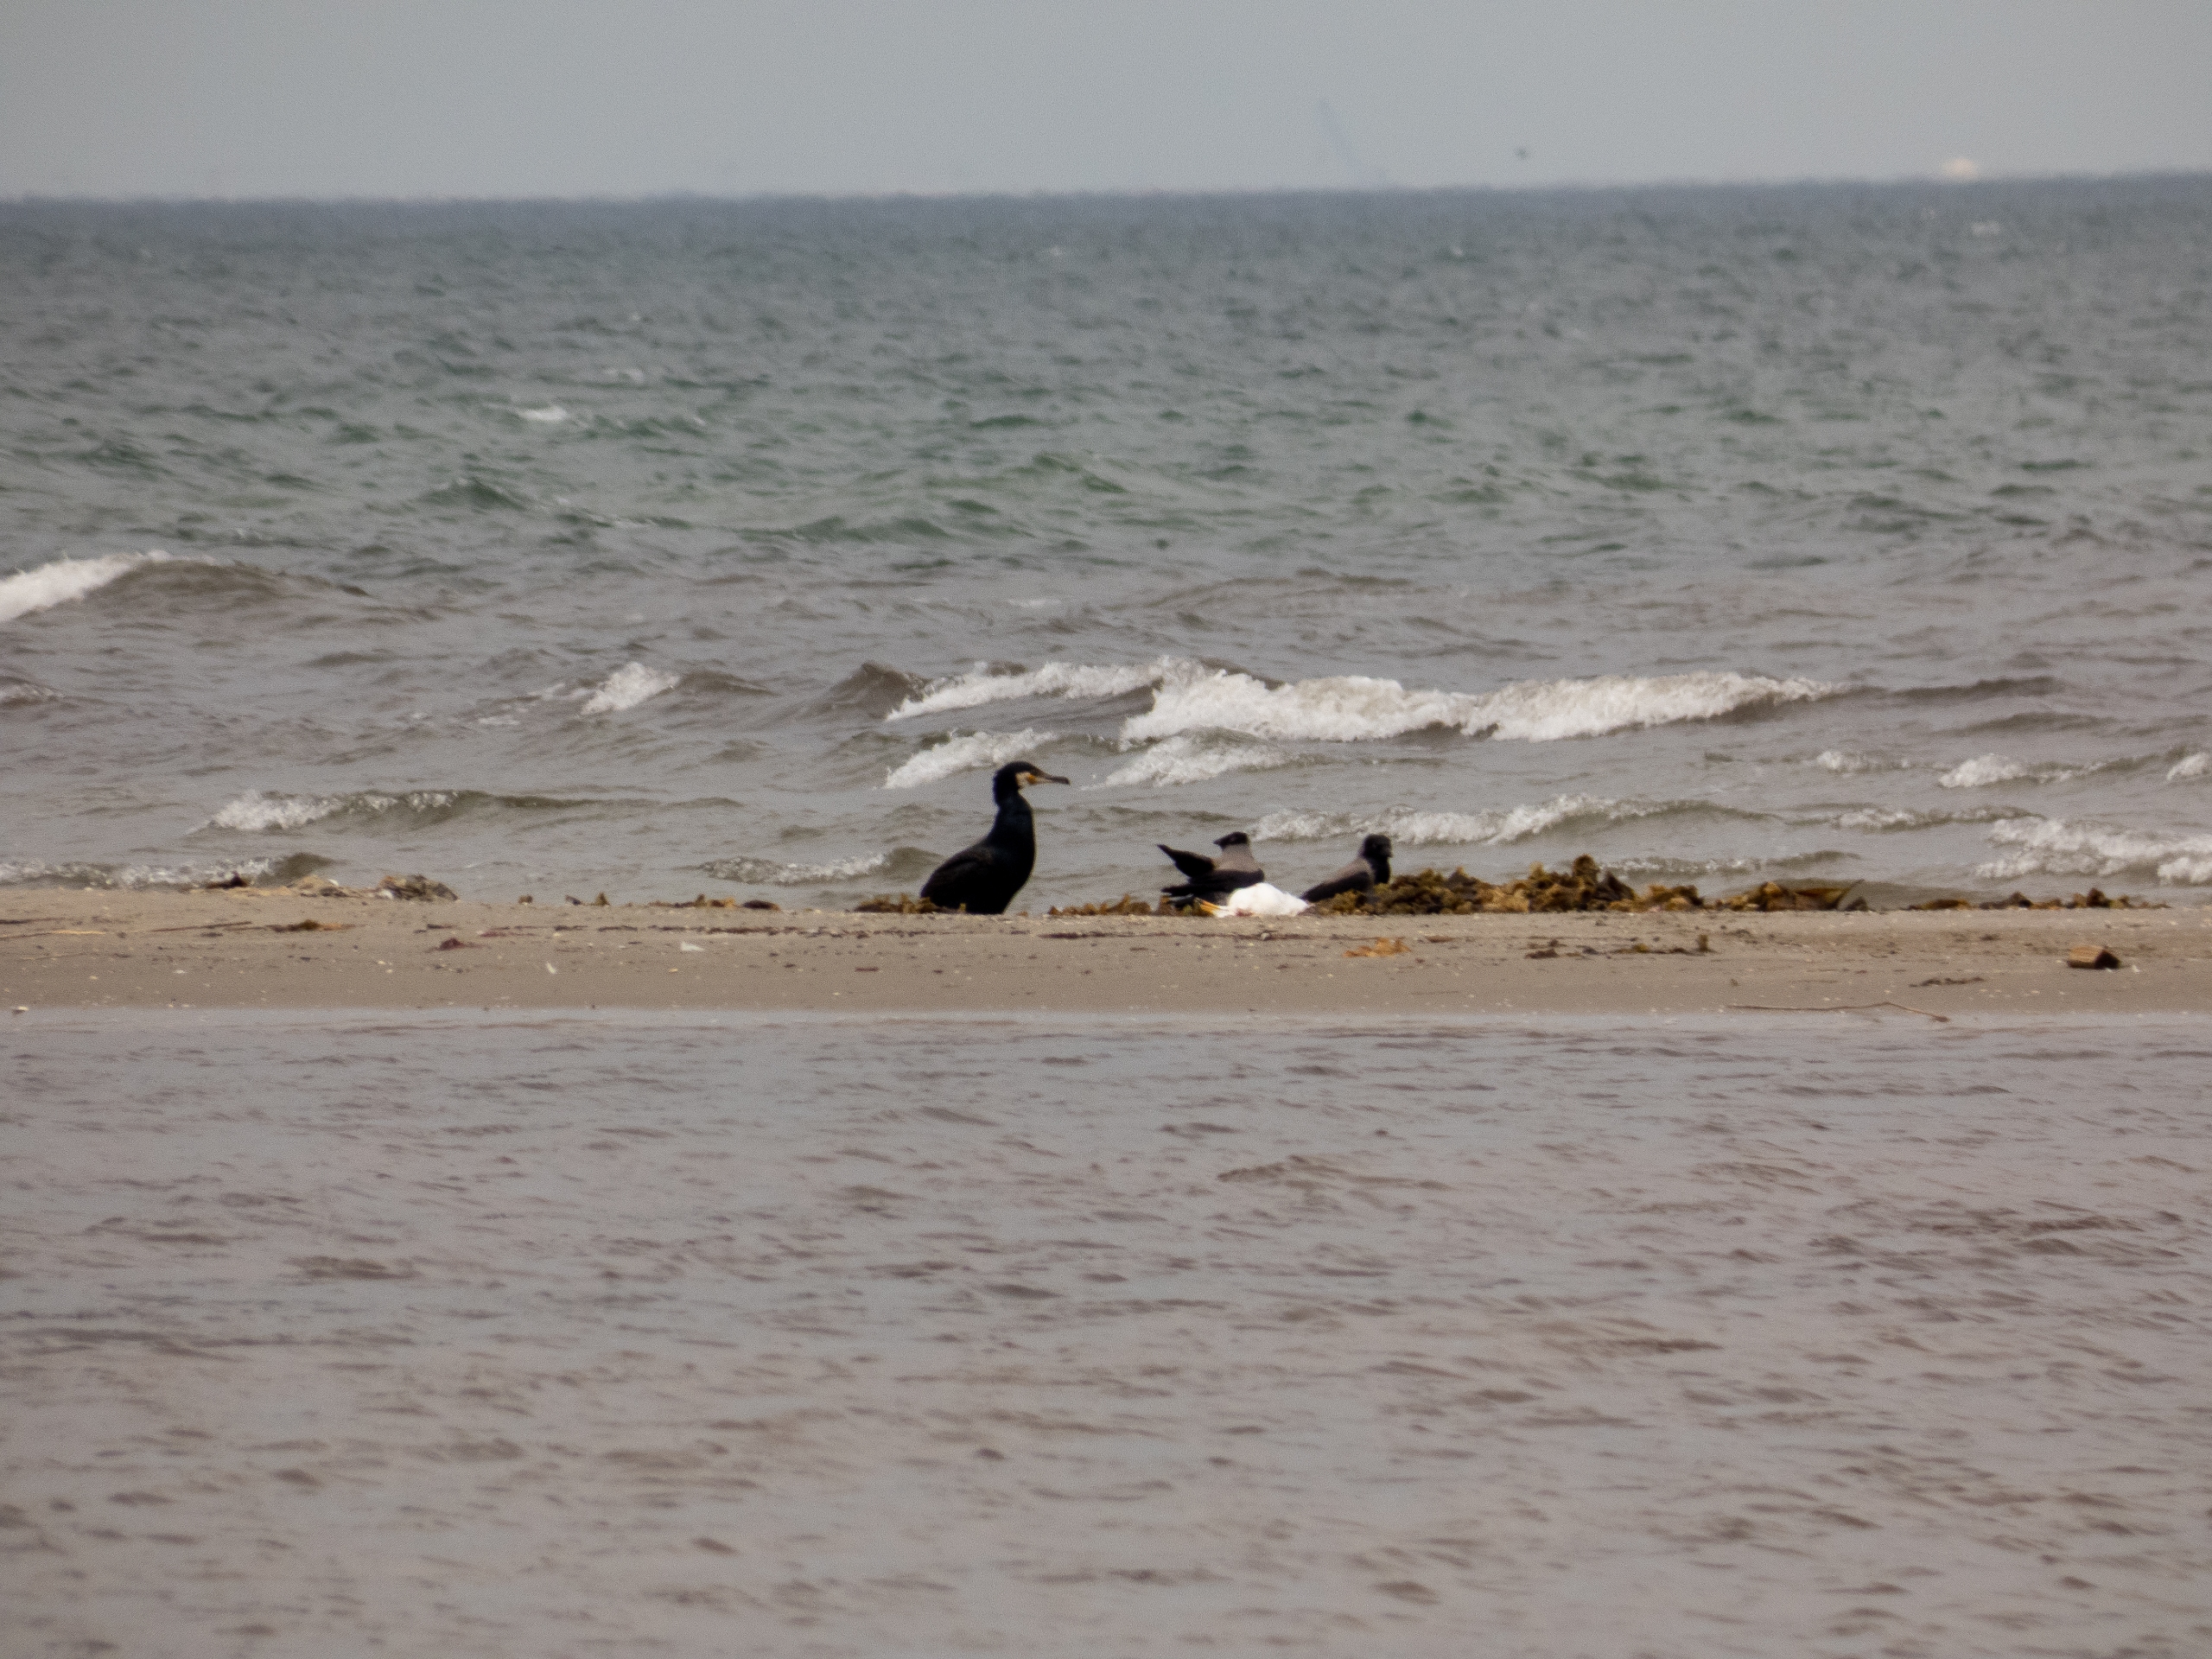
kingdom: Animalia
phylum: Chordata
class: Aves
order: Suliformes
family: Phalacrocoracidae
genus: Phalacrocorax
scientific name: Phalacrocorax carbo
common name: Skarv
